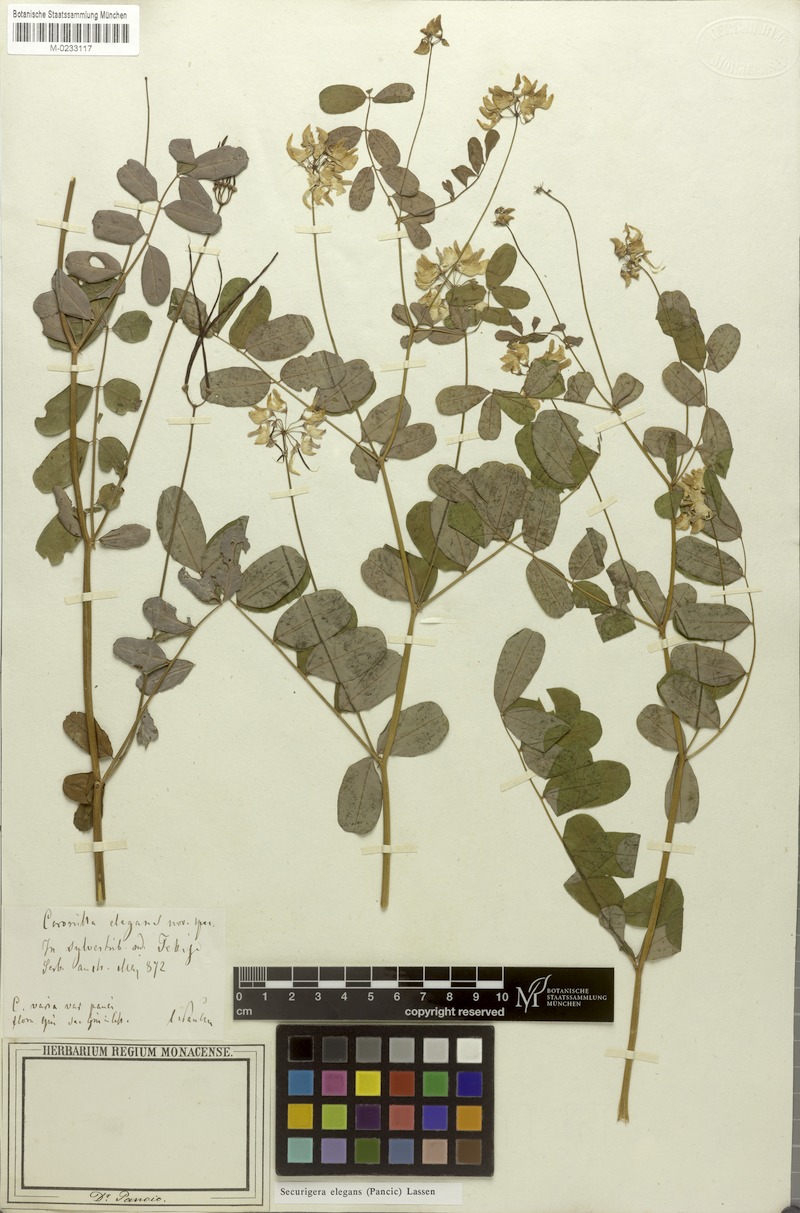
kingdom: Plantae
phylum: Tracheophyta
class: Magnoliopsida
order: Fabales
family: Fabaceae
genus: Coronilla
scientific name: Coronilla elegans
